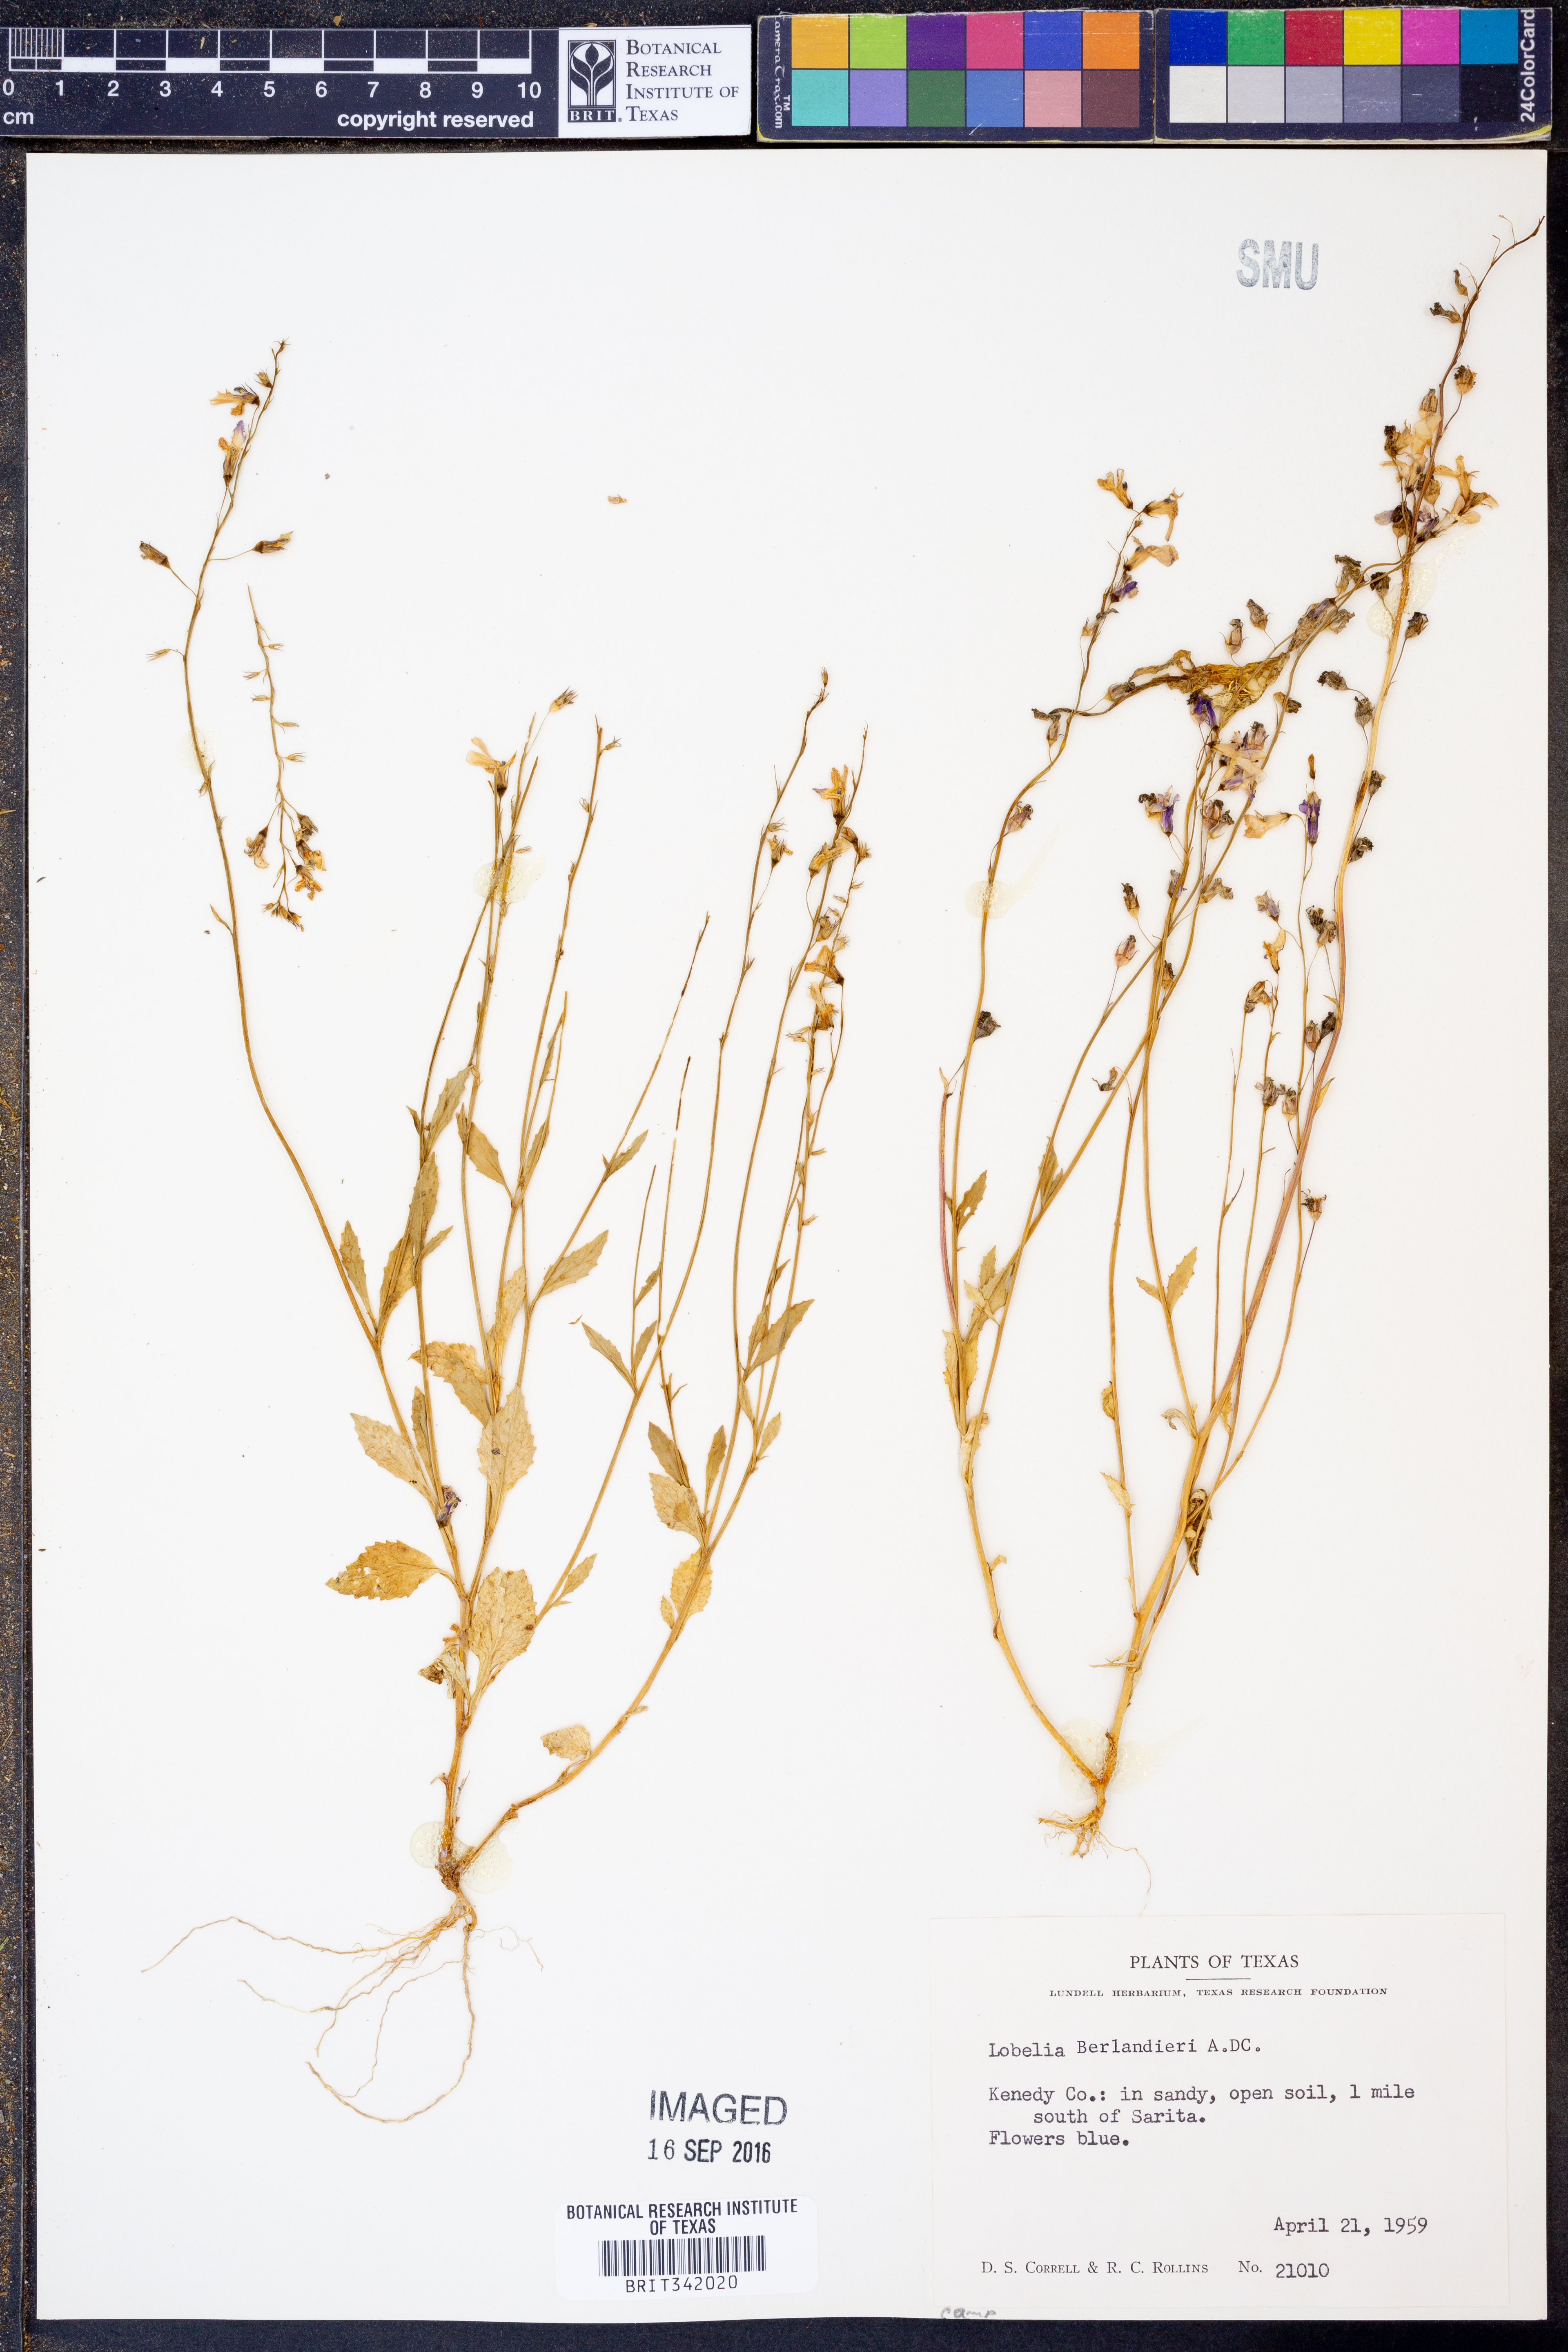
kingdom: Plantae
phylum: Tracheophyta
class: Magnoliopsida
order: Asterales
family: Campanulaceae
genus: Lobelia
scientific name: Lobelia berlandieri
